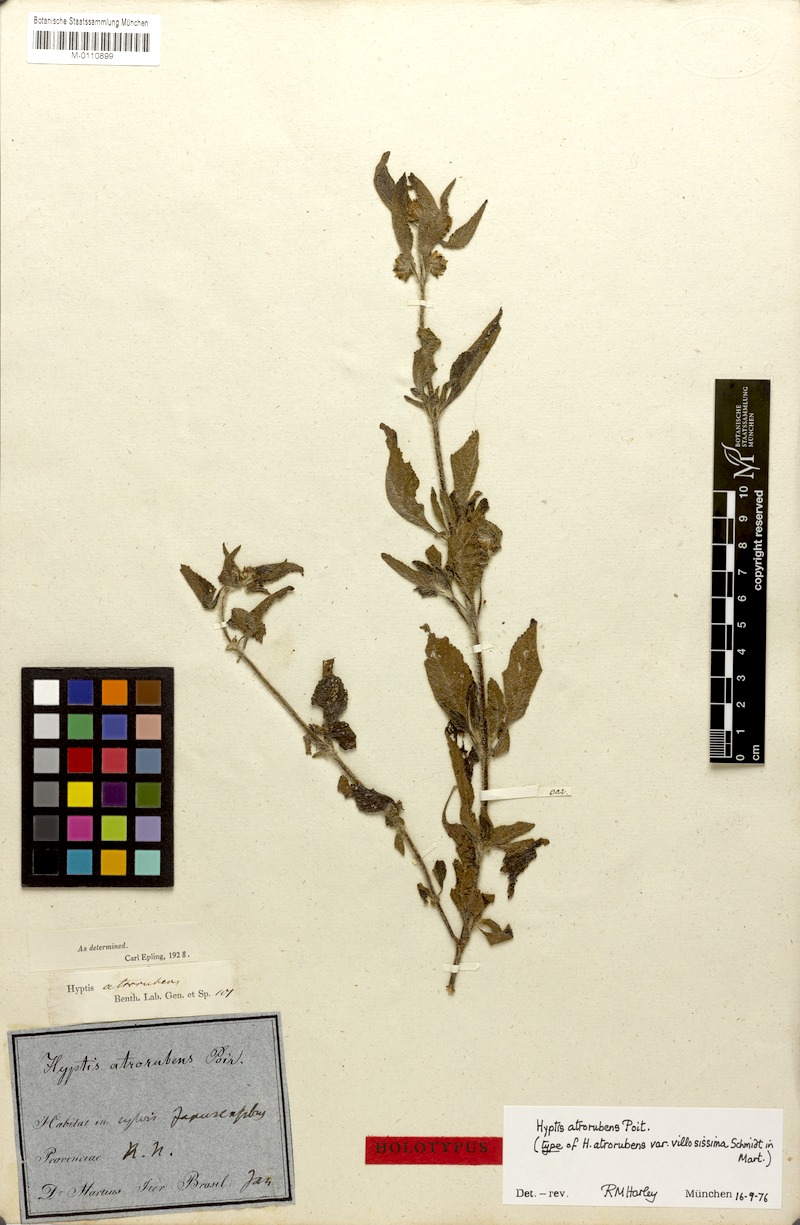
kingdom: Plantae
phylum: Tracheophyta
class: Magnoliopsida
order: Lamiales
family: Lamiaceae
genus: Hyptis
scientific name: Hyptis atrorubens
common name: Lanmant
